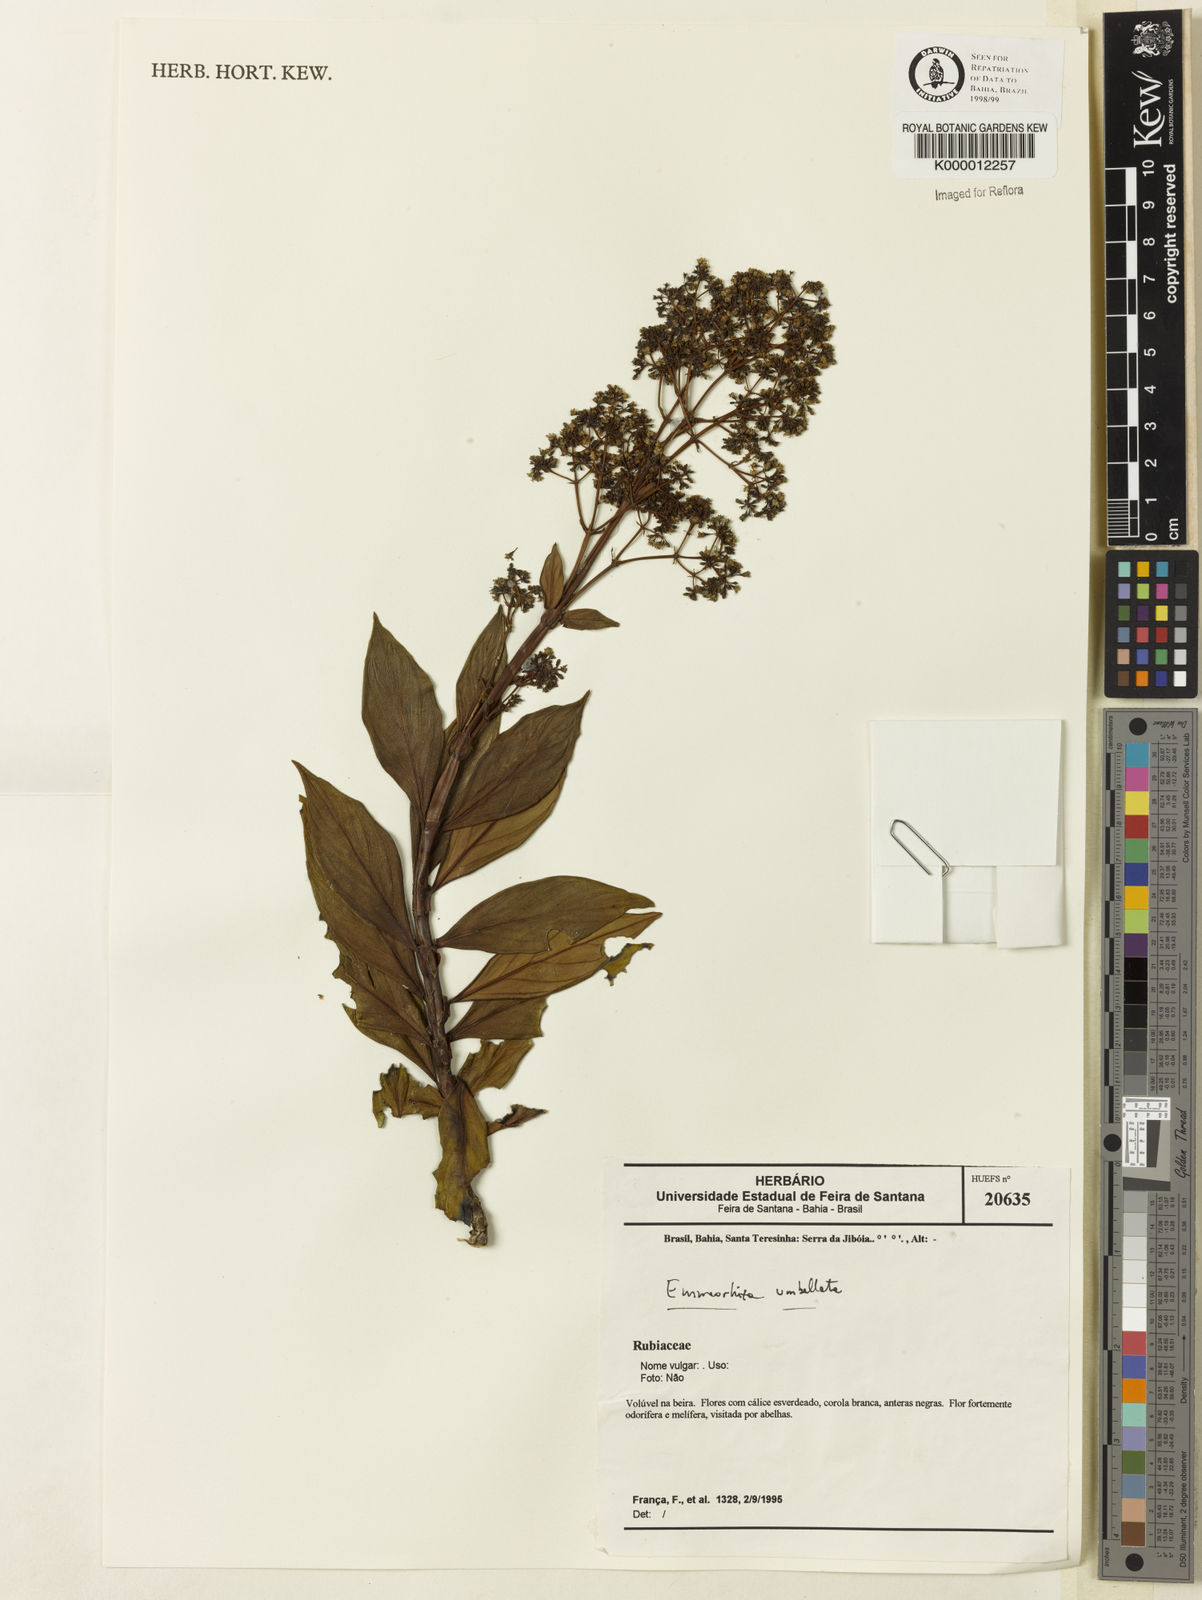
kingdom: Plantae
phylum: Tracheophyta
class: Magnoliopsida
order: Gentianales
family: Rubiaceae
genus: Emmeorhiza
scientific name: Emmeorhiza umbellata
